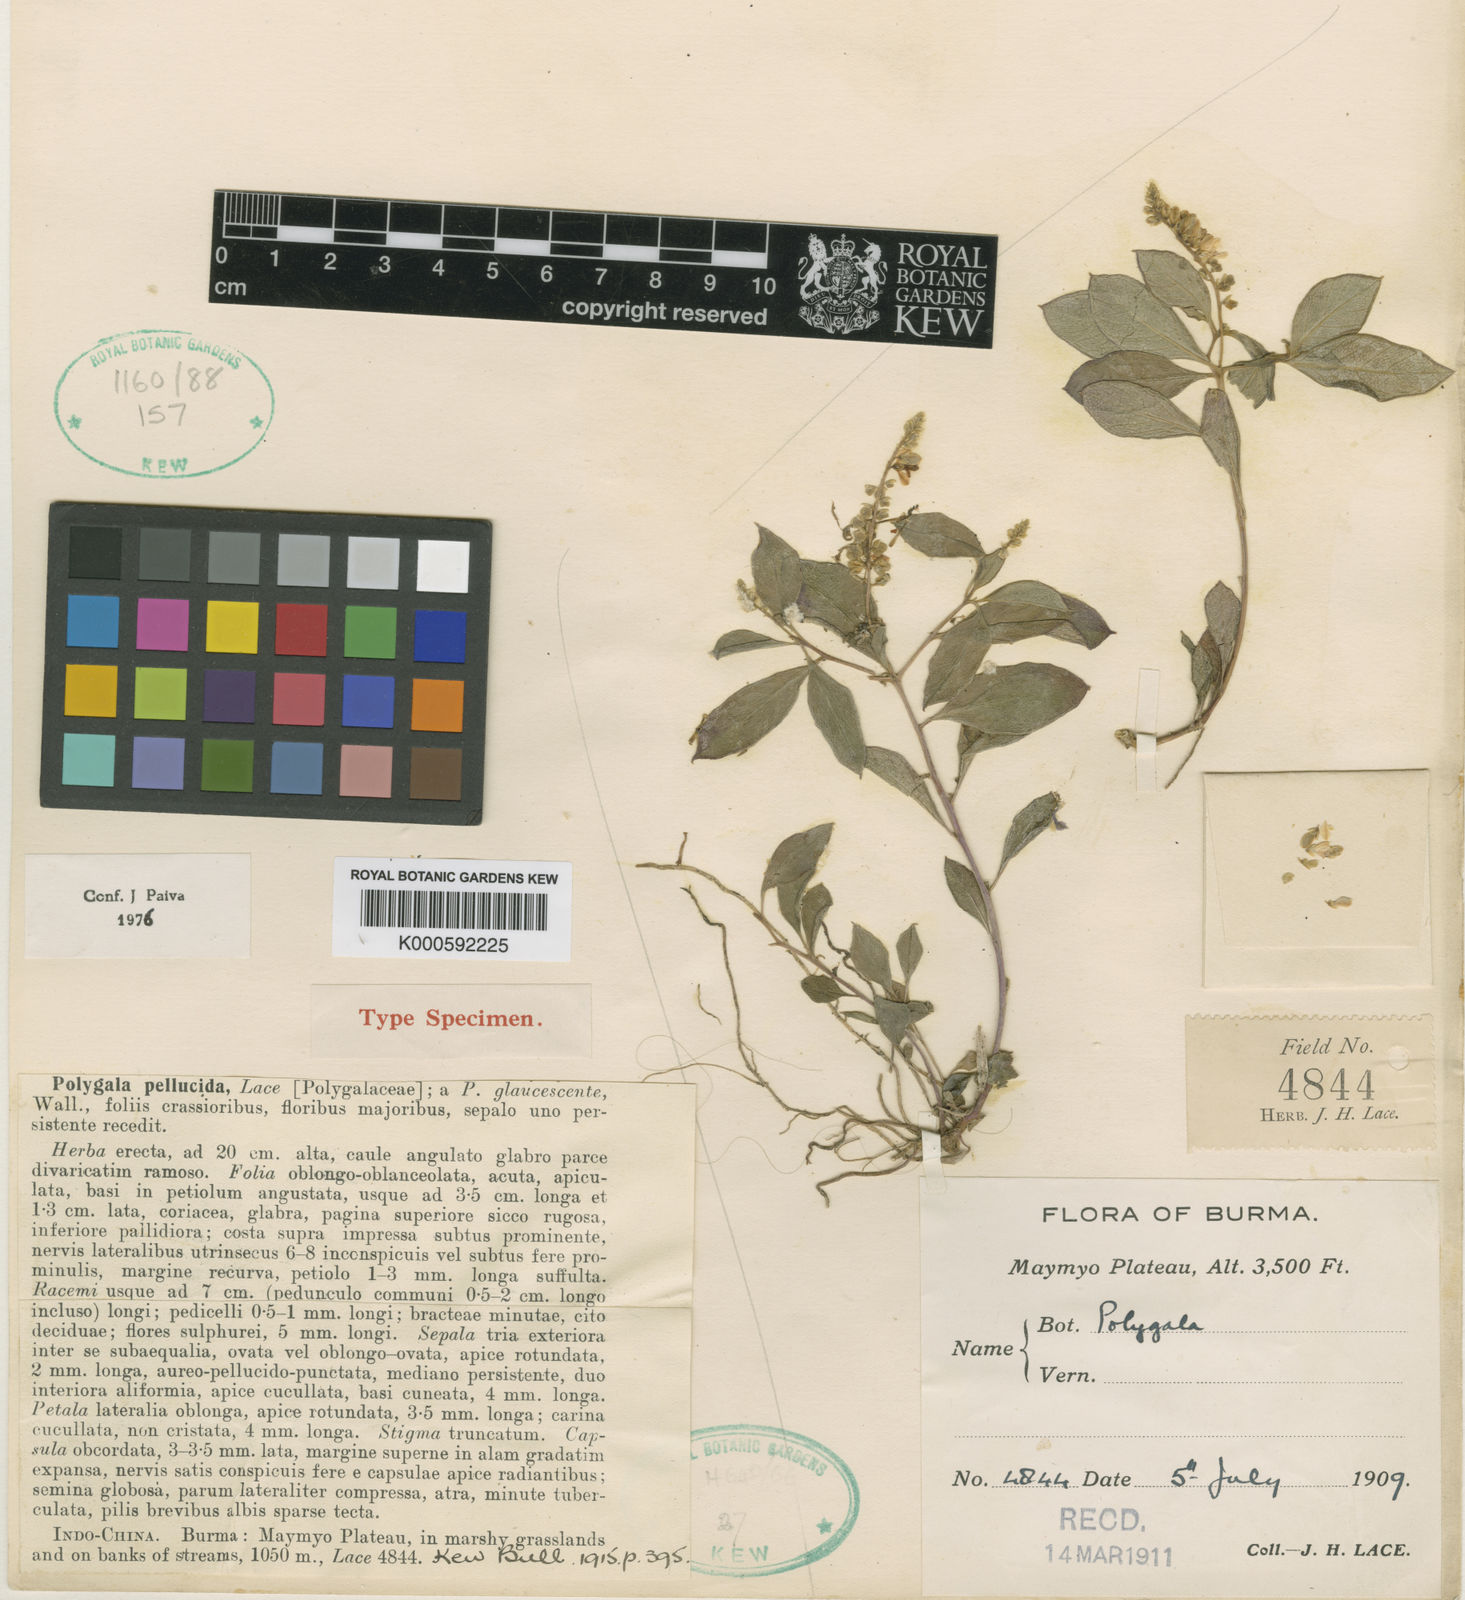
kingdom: Plantae
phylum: Tracheophyta
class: Magnoliopsida
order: Fabales
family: Polygalaceae
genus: Polygala
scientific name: Polygala pellucida
